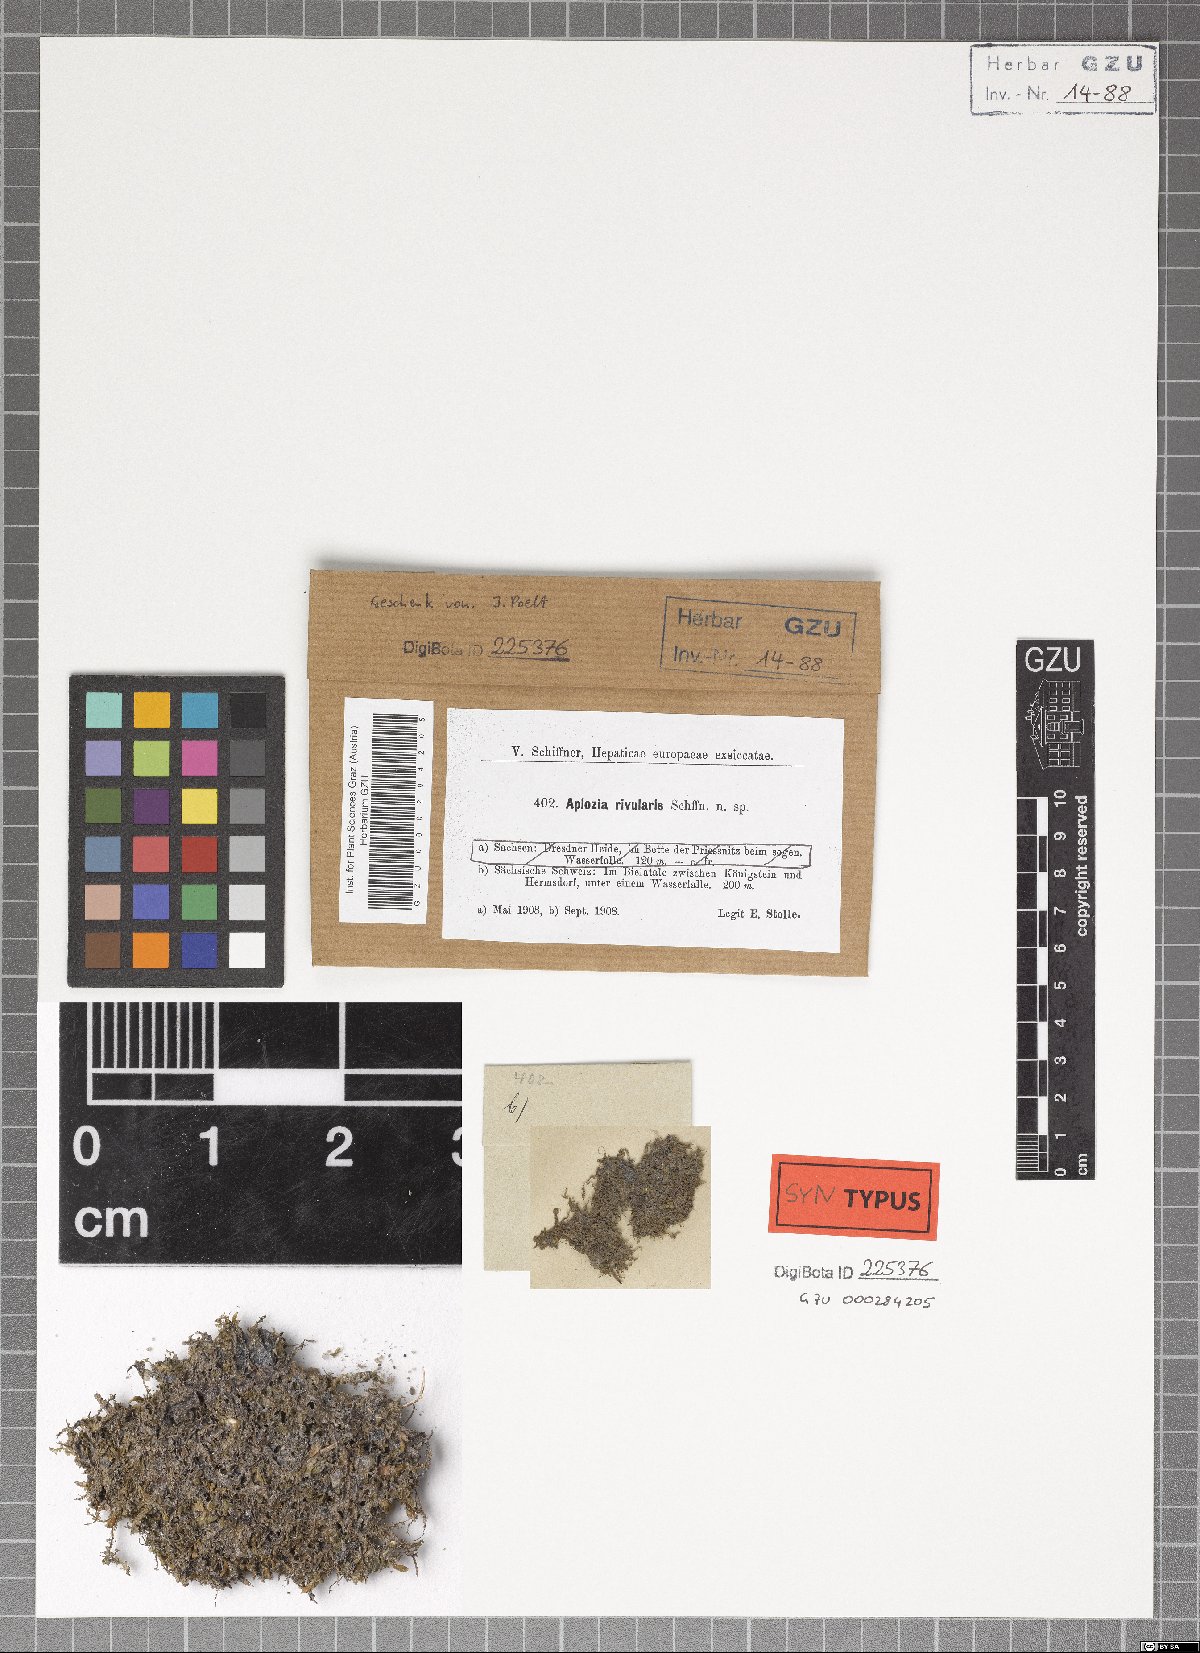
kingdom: Plantae
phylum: Marchantiophyta
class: Jungermanniopsida
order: Jungermanniales
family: Jungermanniaceae
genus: Jungermannia
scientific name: Jungermannia pumila
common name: Dwarf flapwort
